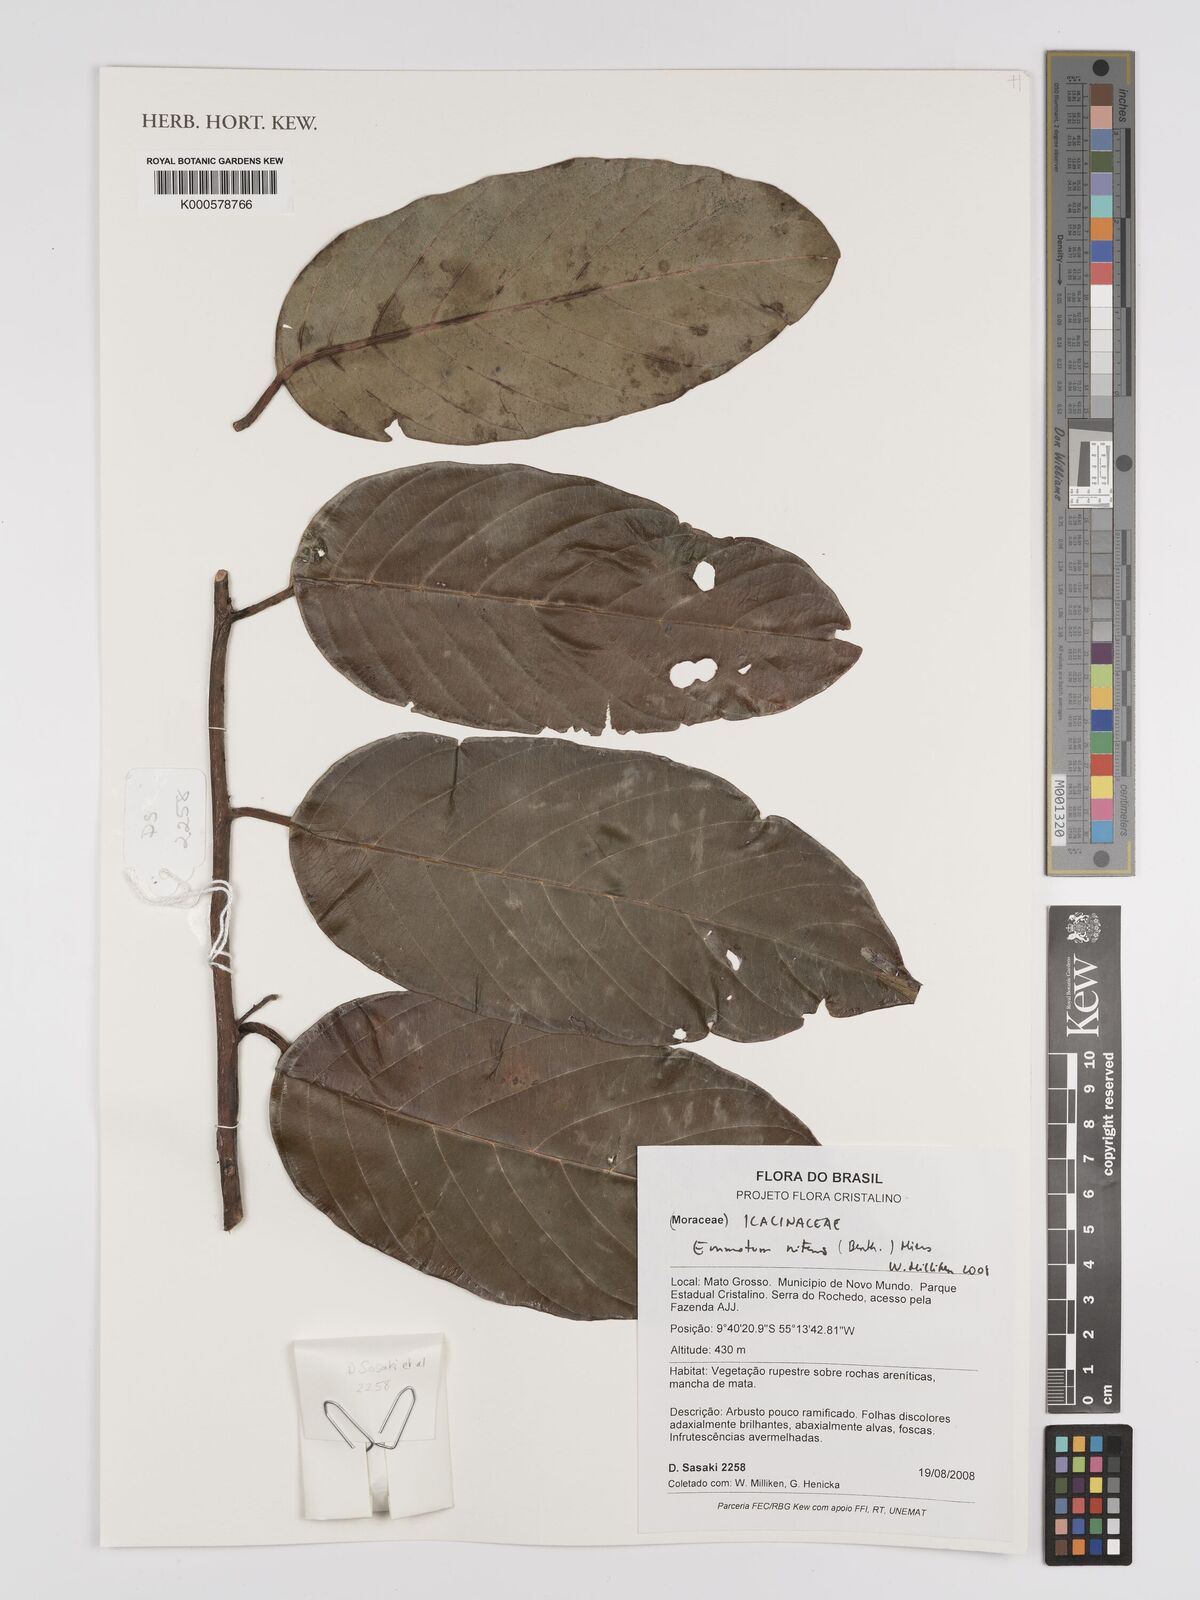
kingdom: Plantae
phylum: Tracheophyta
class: Magnoliopsida
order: Metteniusales
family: Metteniusaceae
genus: Emmotum
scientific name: Emmotum nitens
